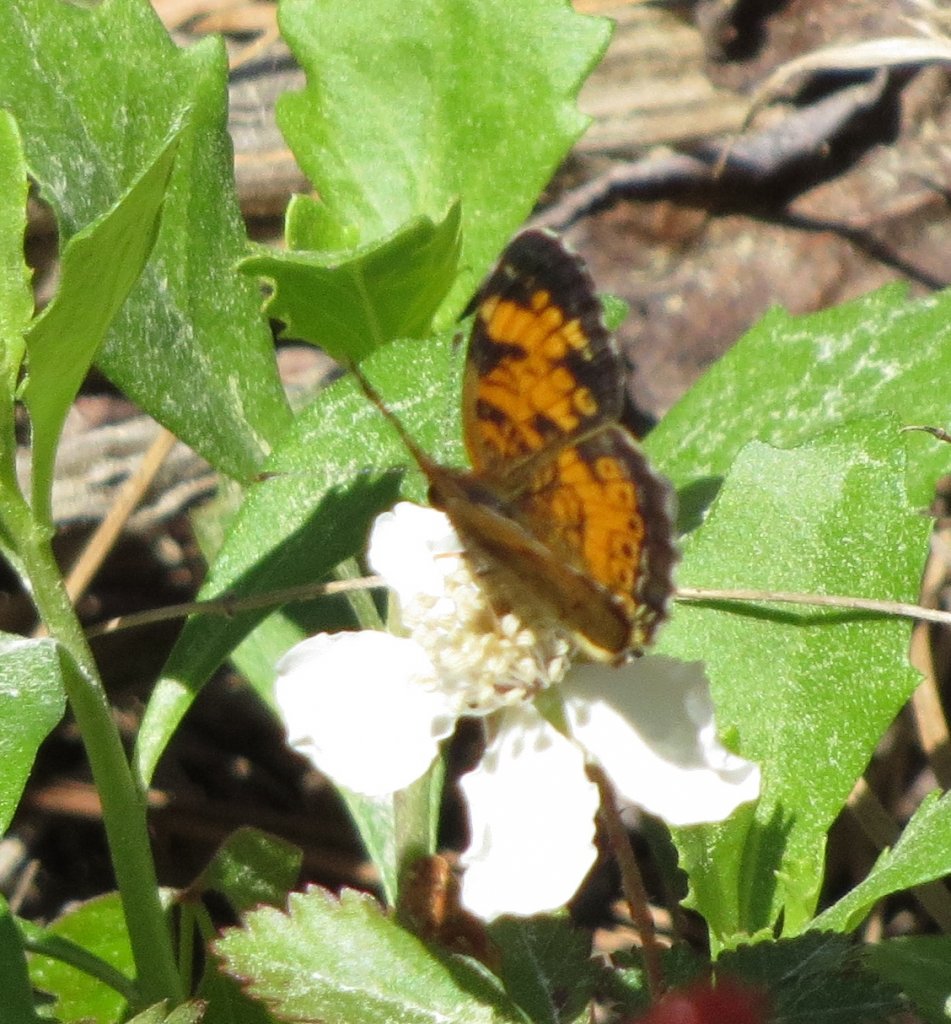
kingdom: Animalia
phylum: Arthropoda
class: Insecta
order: Lepidoptera
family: Nymphalidae
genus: Phyciodes
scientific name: Phyciodes tharos
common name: Pearl Crescent
